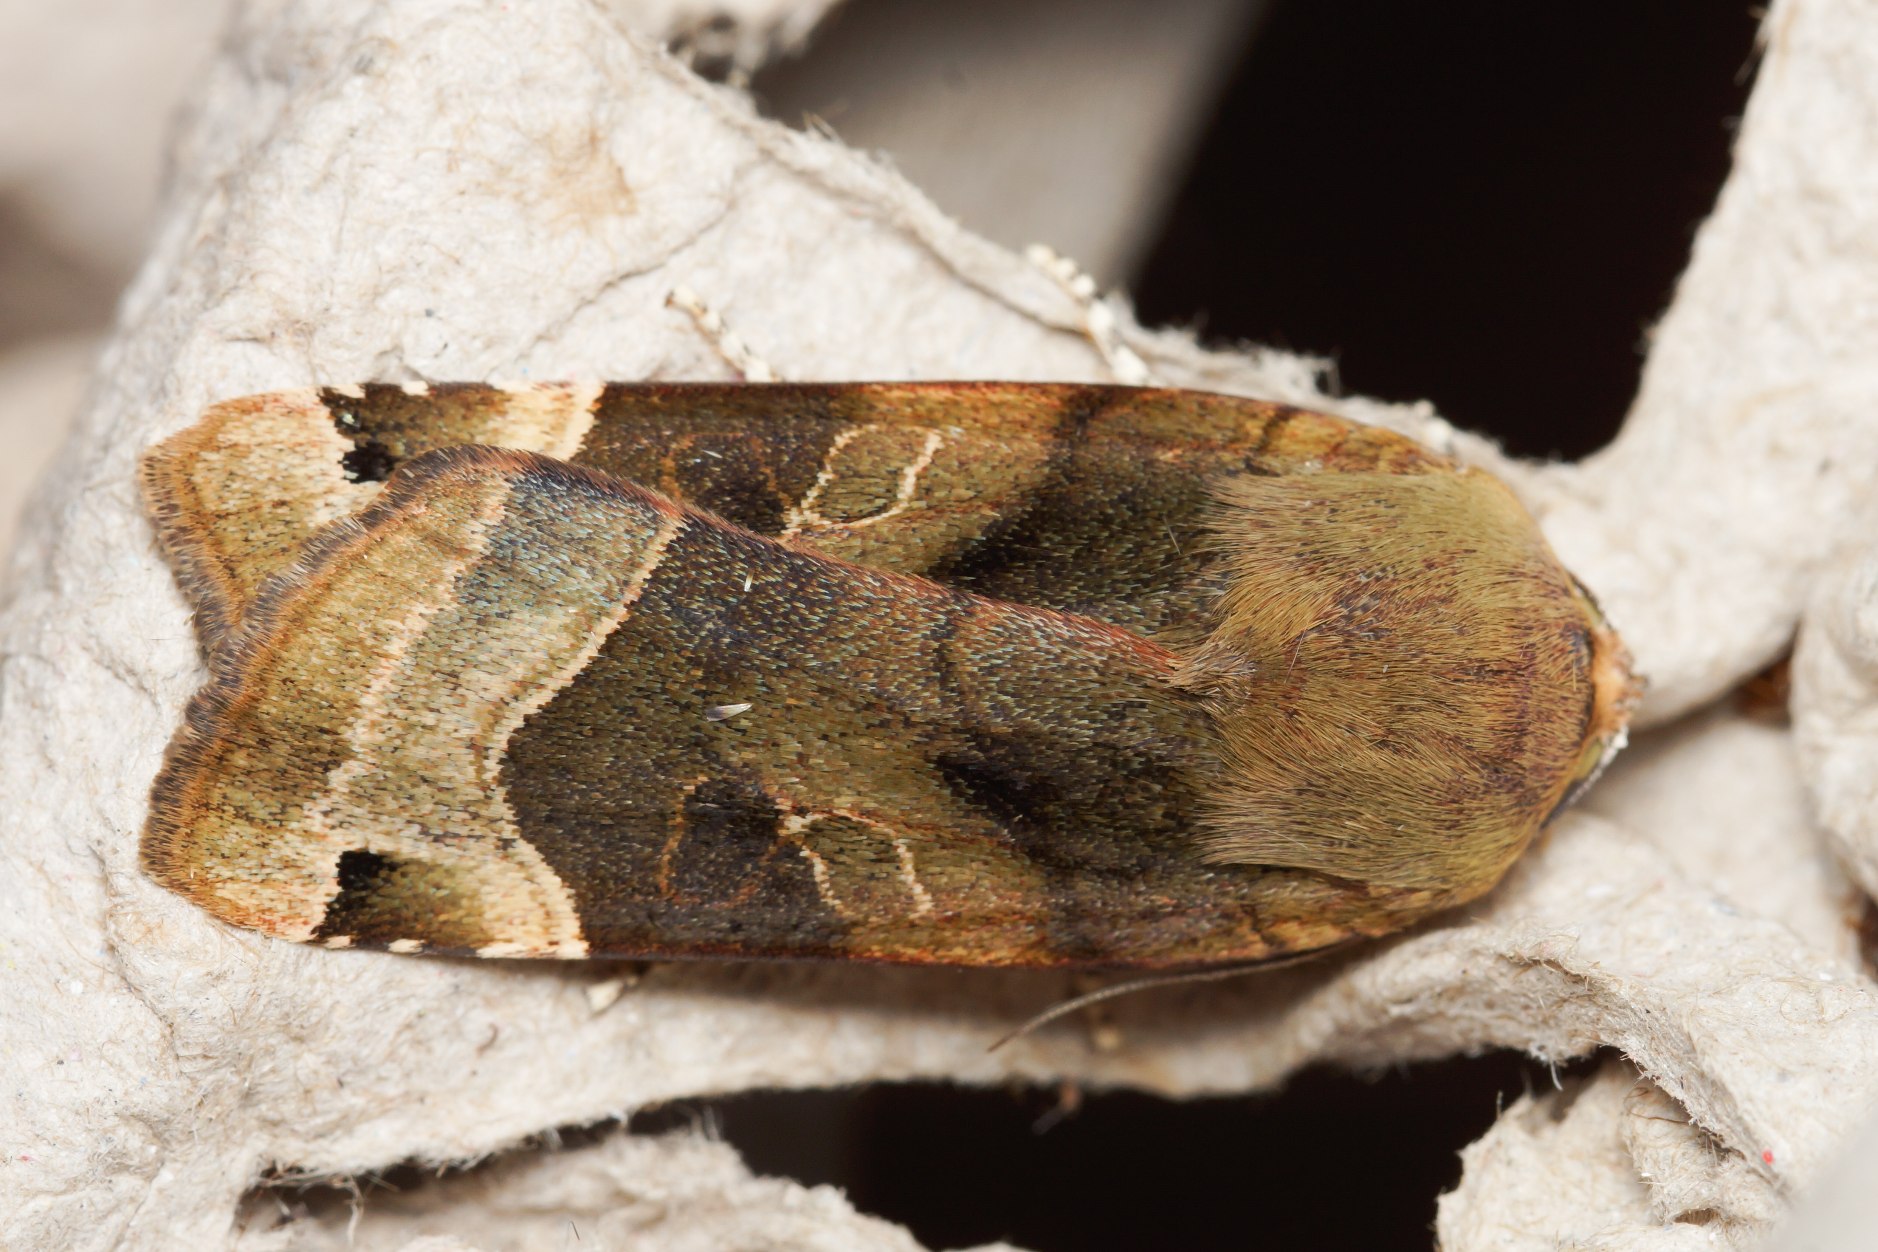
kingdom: Animalia
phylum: Arthropoda
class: Insecta
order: Lepidoptera
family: Noctuidae
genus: Noctua
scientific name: Noctua fimbriata
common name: Gul båndugle
